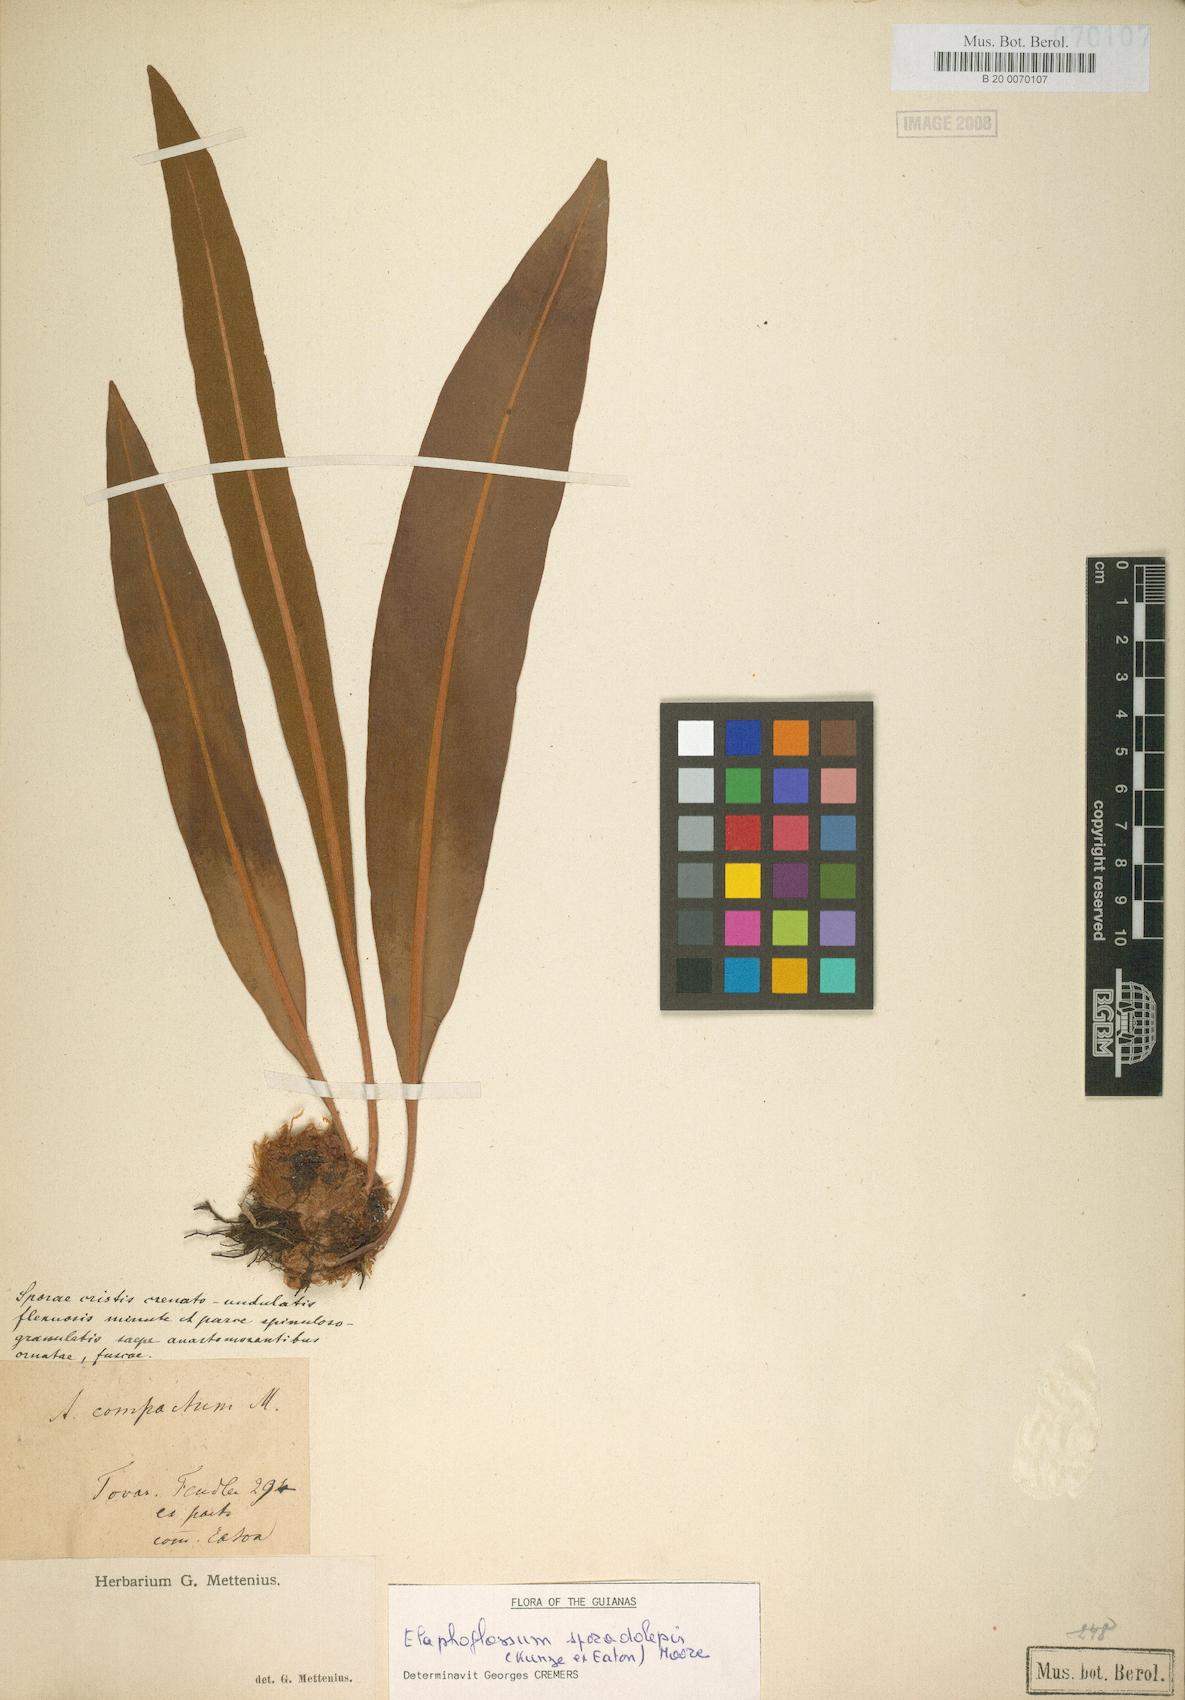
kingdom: Plantae
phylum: Tracheophyta
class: Polypodiopsida
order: Polypodiales
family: Dryopteridaceae
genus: Elaphoglossum
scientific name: Elaphoglossum sporadolepis
